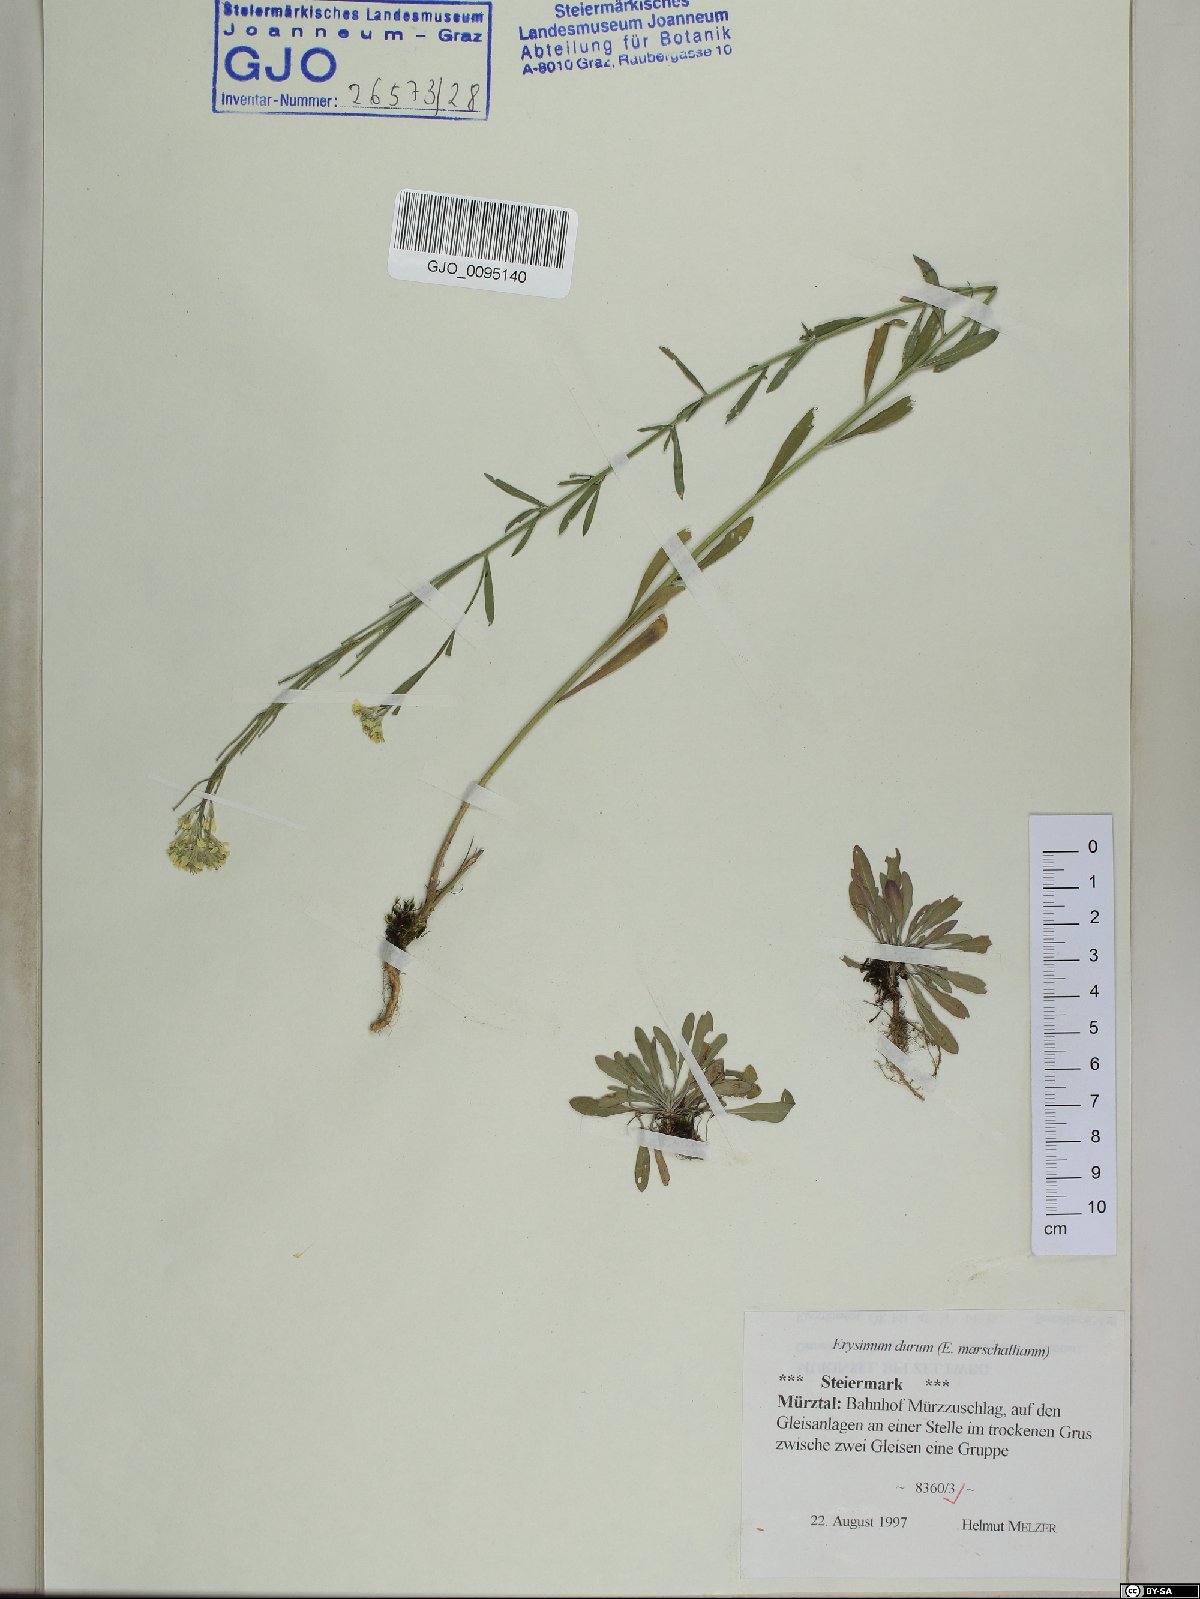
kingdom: Plantae
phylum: Tracheophyta
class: Magnoliopsida
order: Brassicales
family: Brassicaceae
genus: Erysimum
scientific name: Erysimum marschallianum
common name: Hard wallflower
